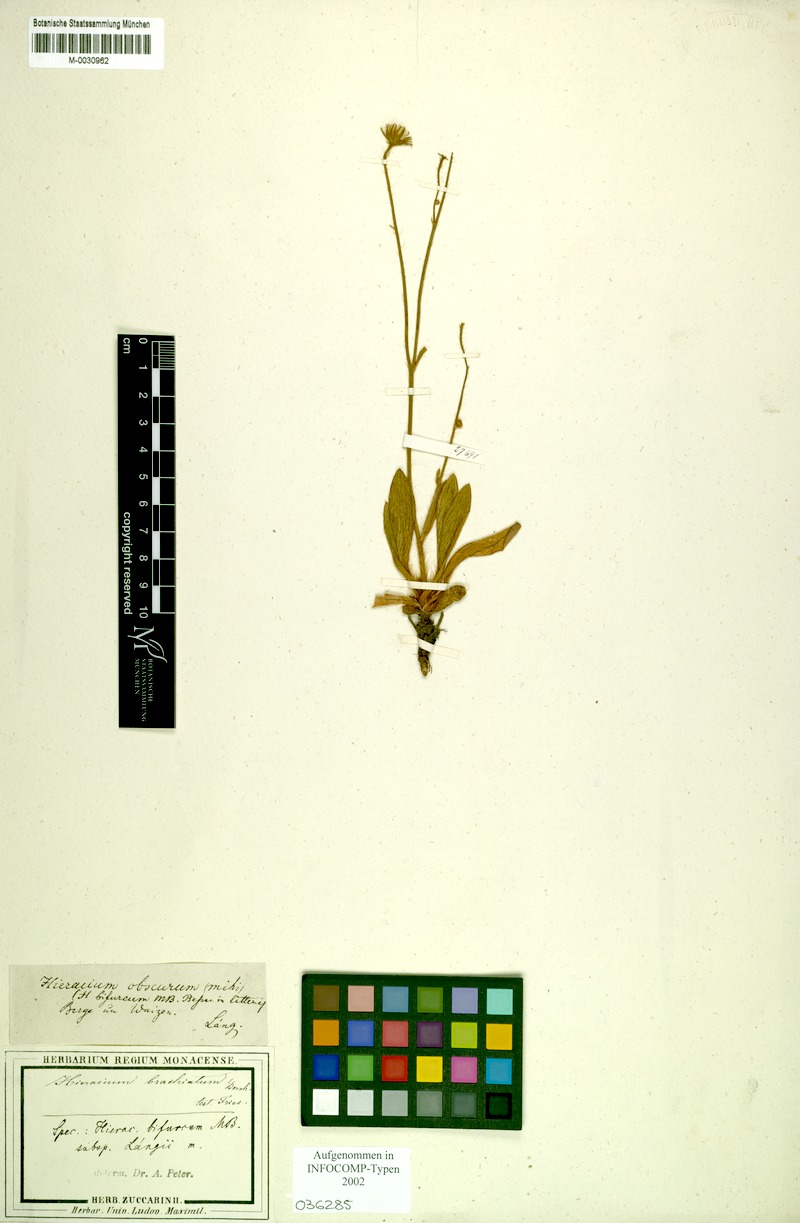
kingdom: Plantae
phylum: Tracheophyta
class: Magnoliopsida
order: Asterales
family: Asteraceae
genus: Pilosella
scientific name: Pilosella bifurca
